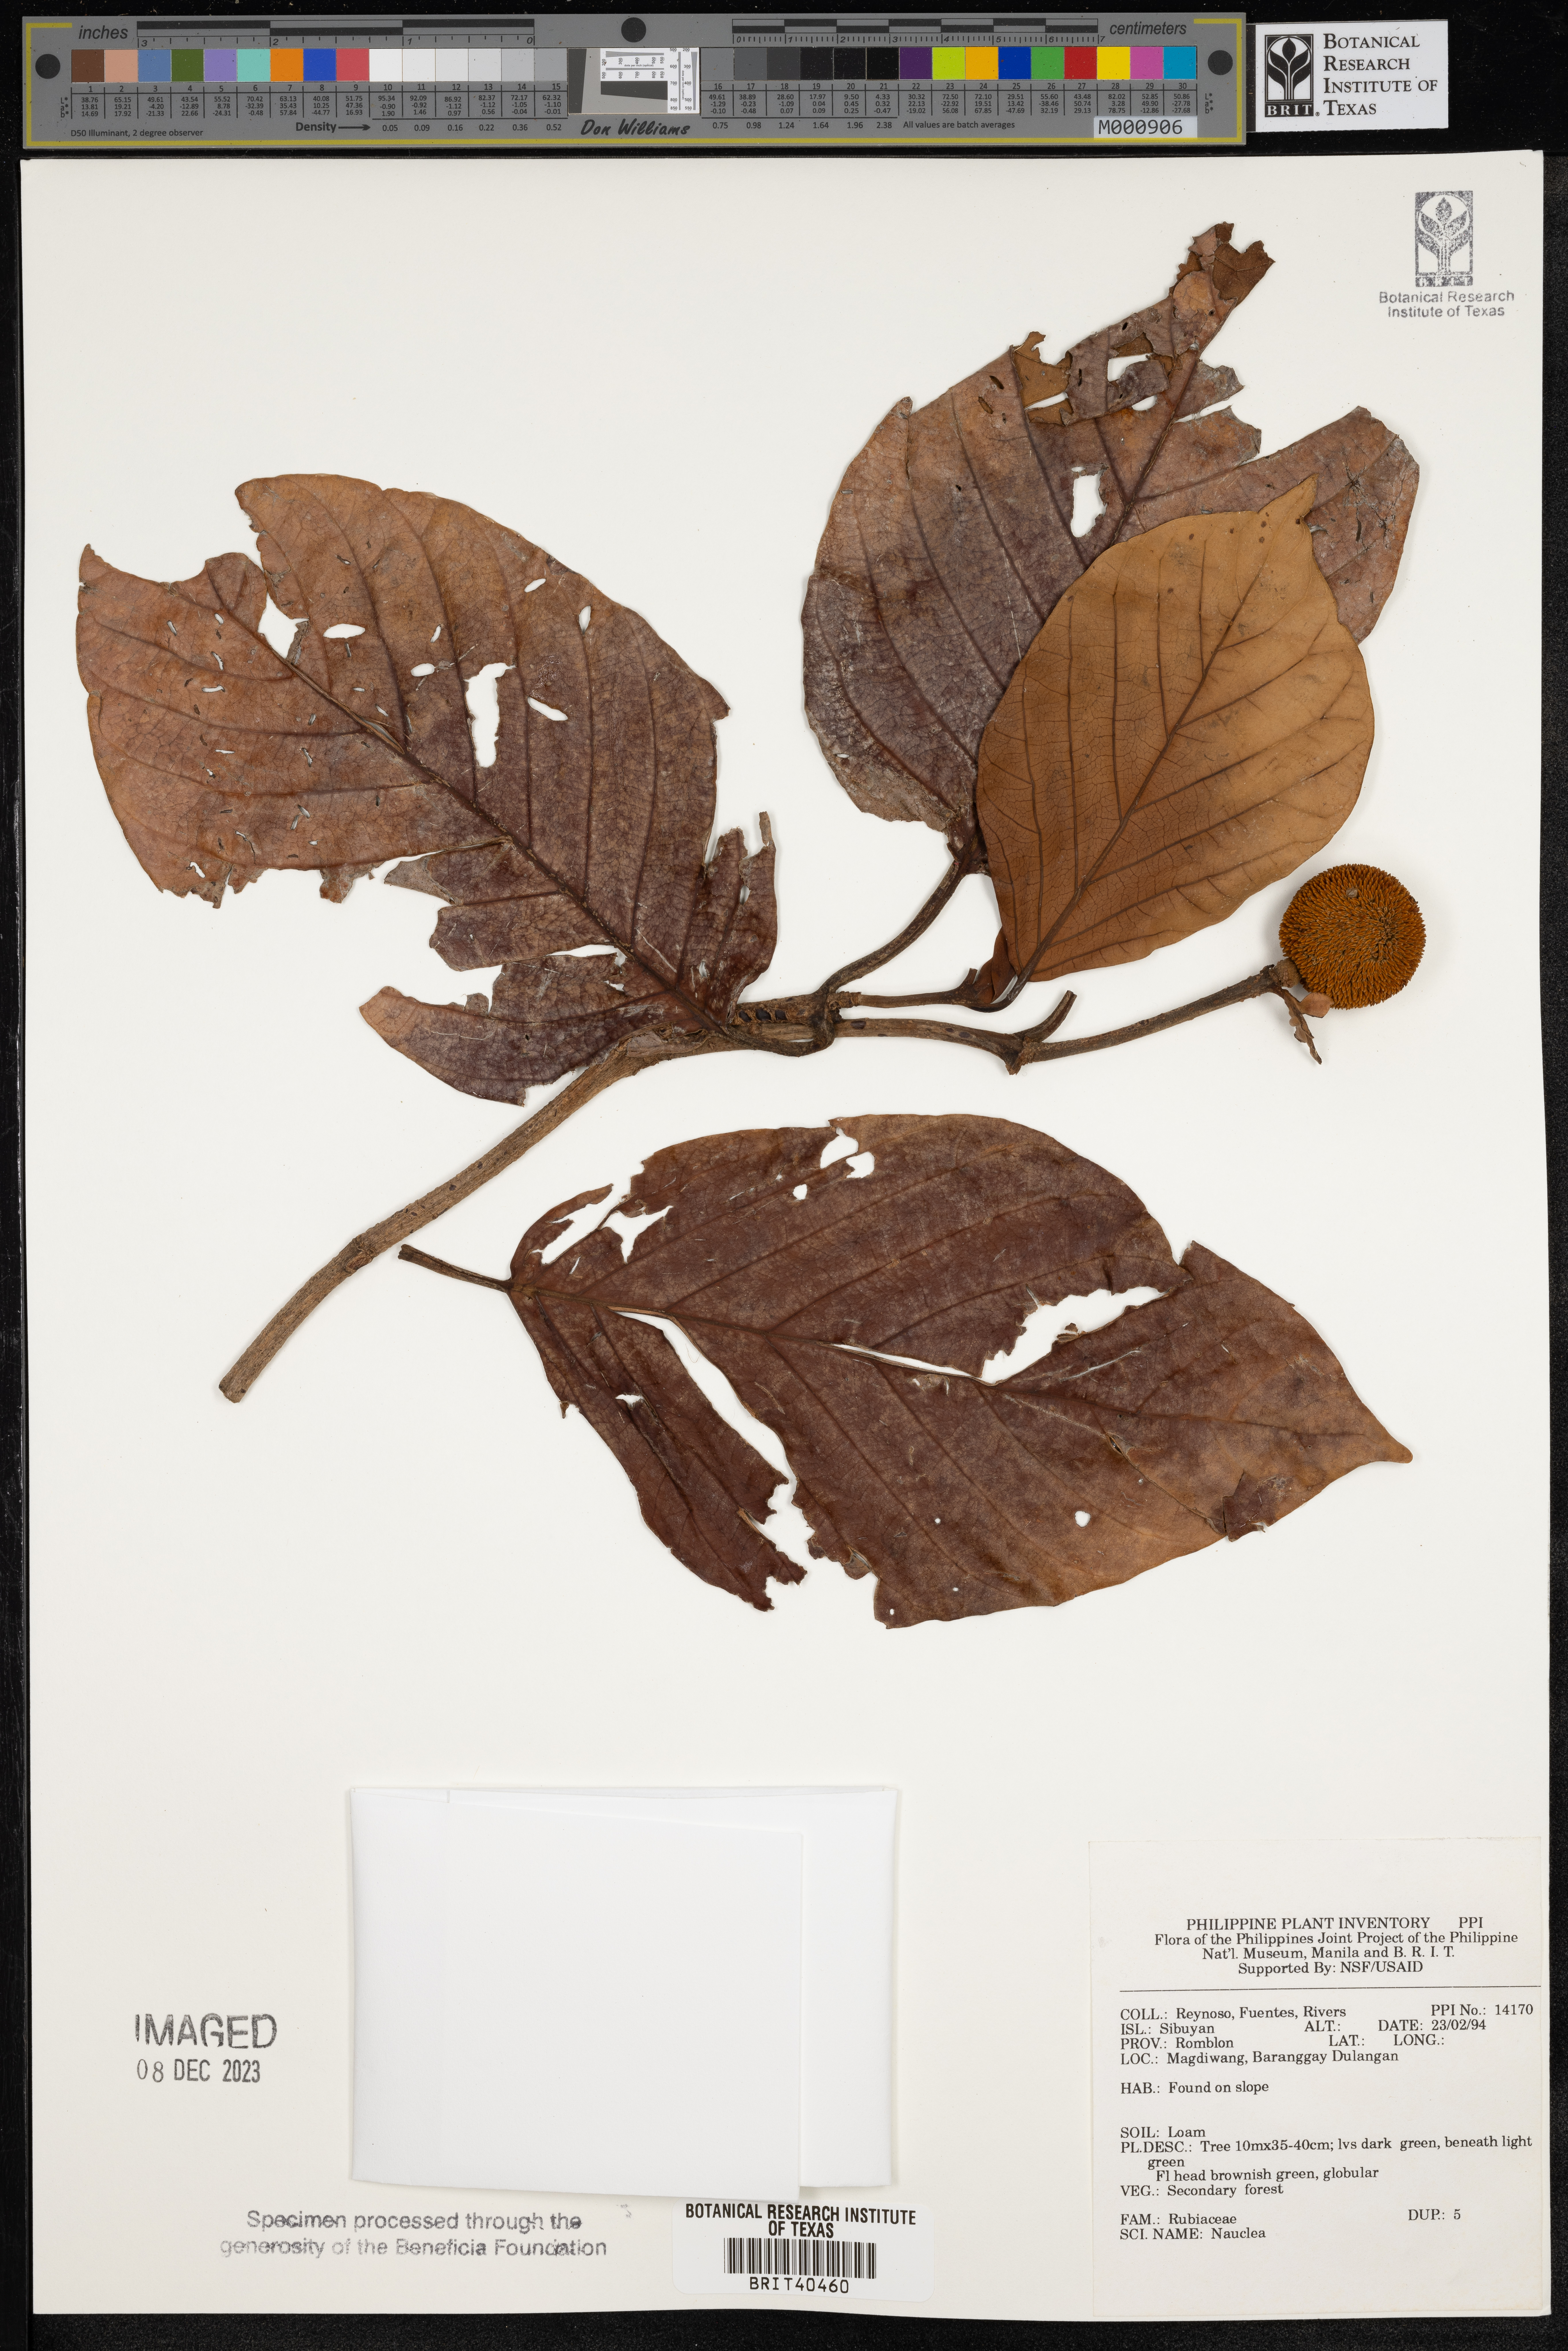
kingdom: Plantae
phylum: Tracheophyta
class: Magnoliopsida
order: Gentianales
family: Rubiaceae
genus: Nauclea
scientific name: Nauclea
